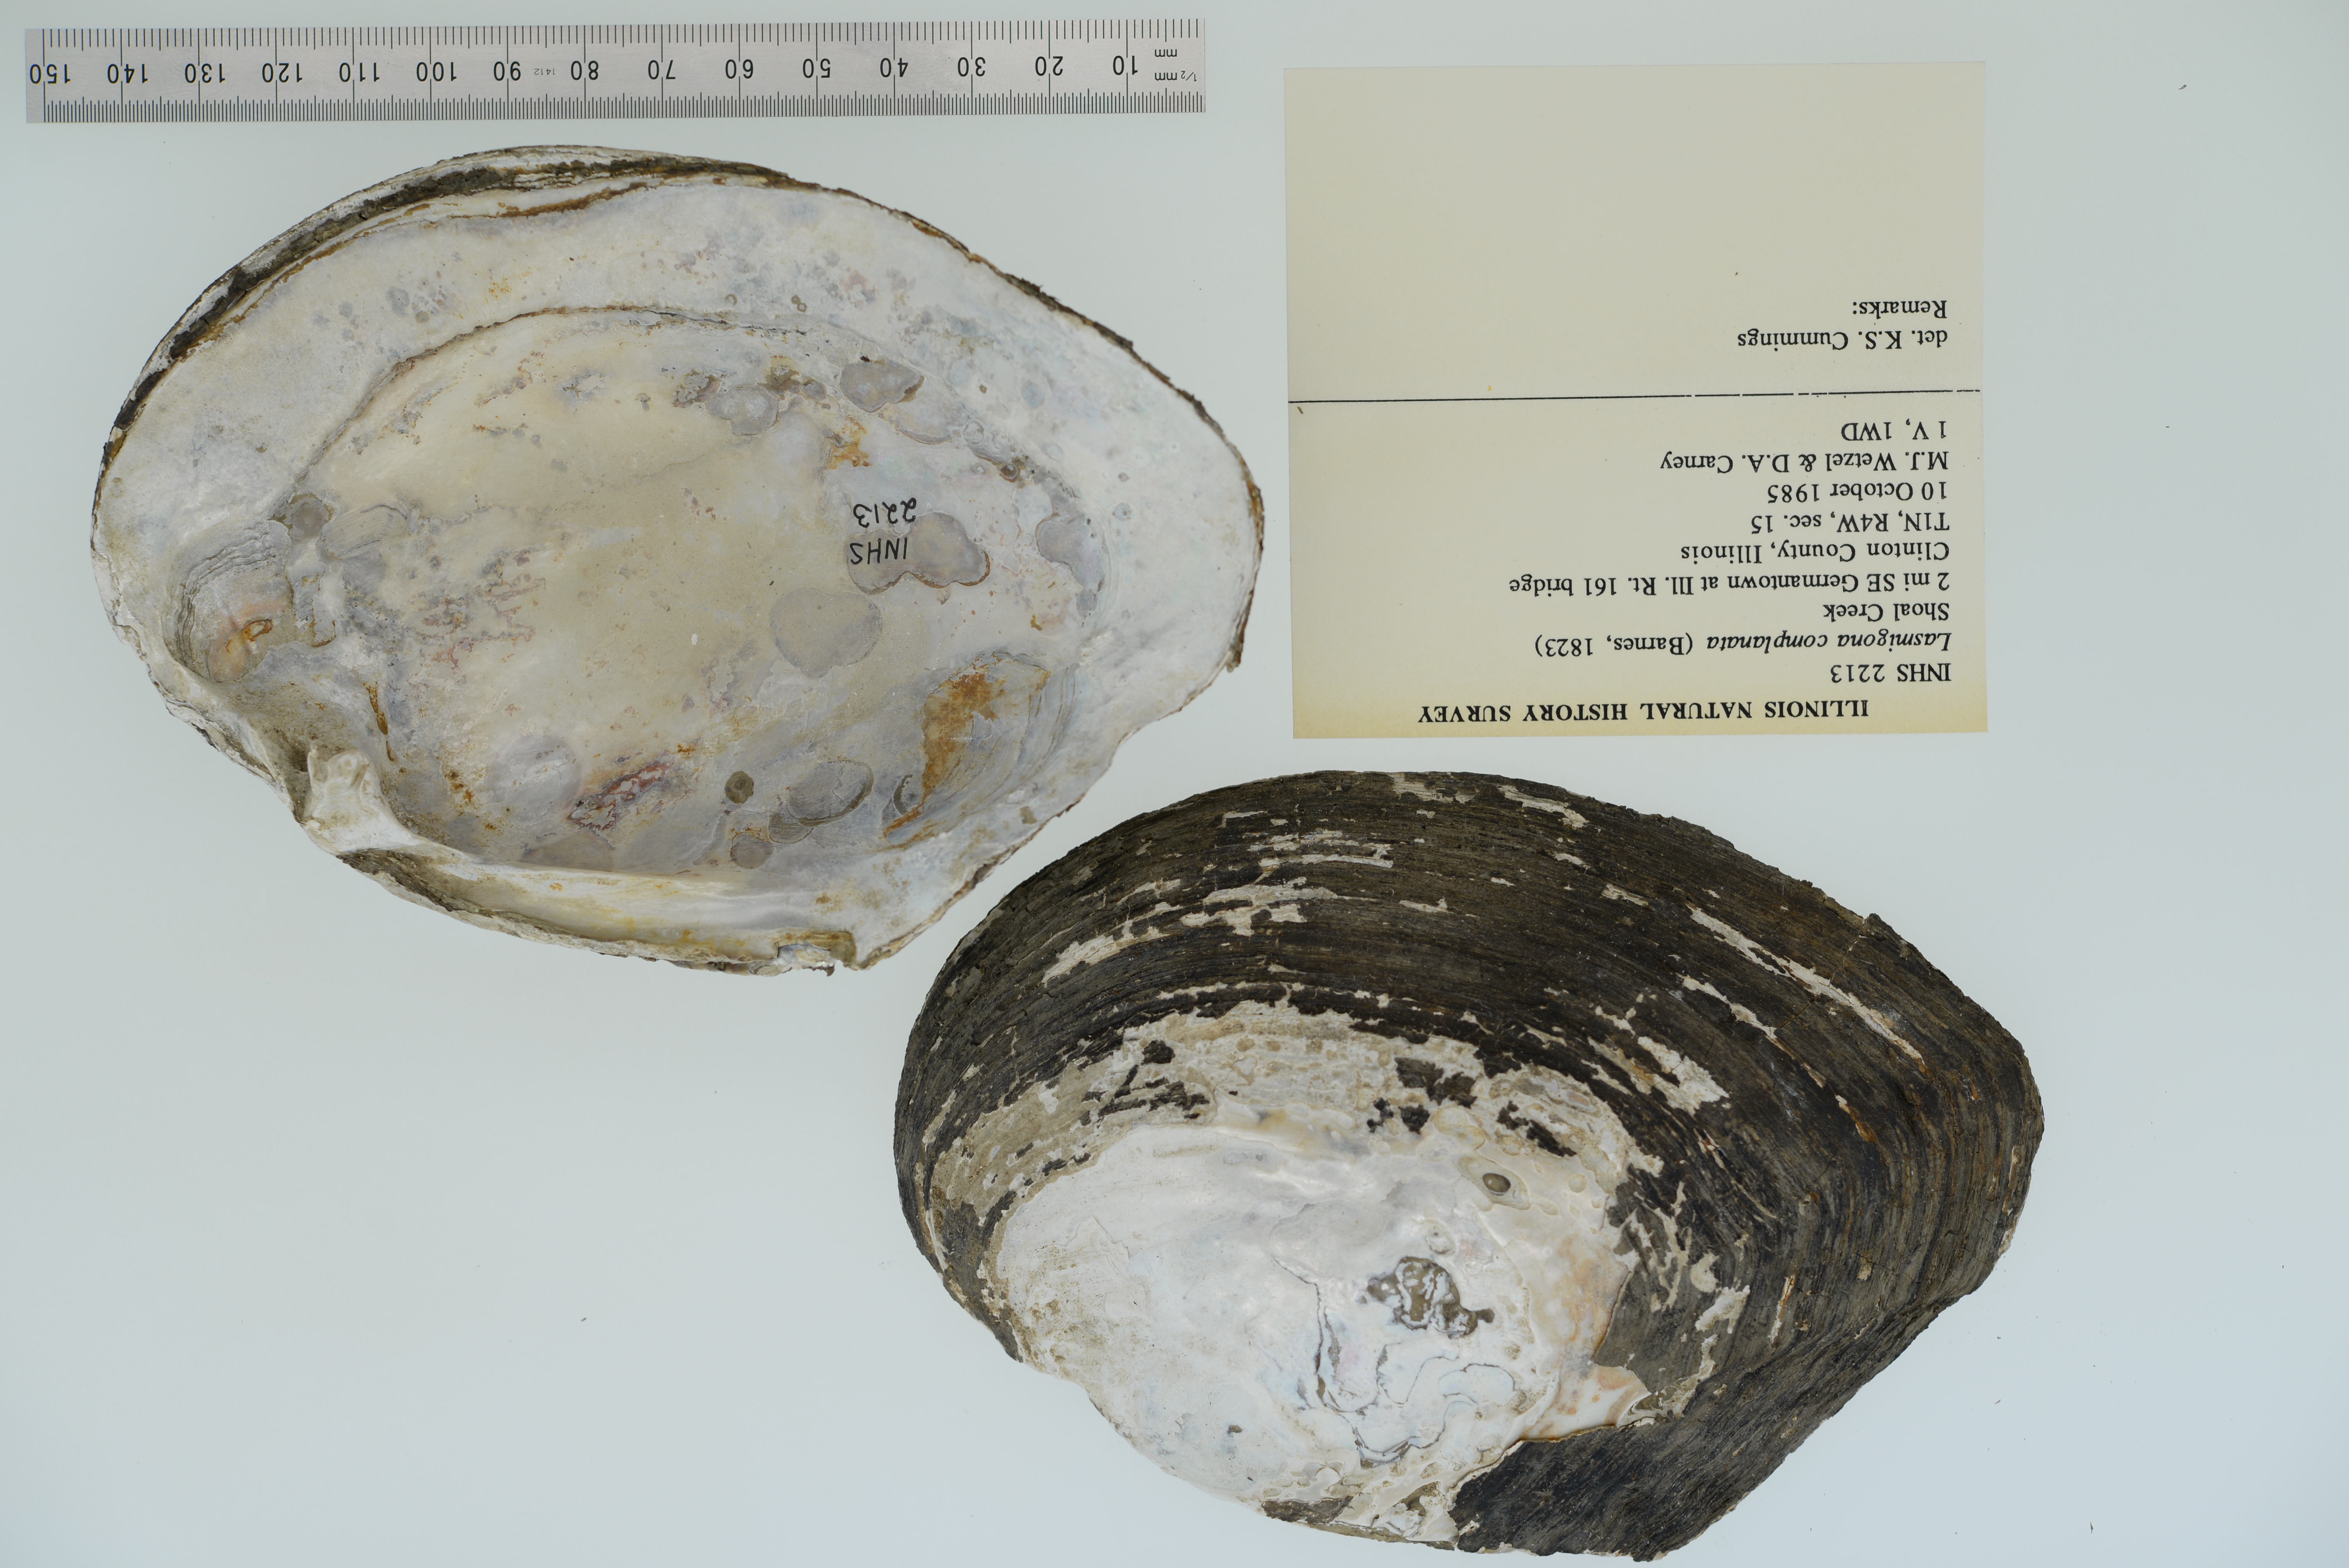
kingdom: Animalia
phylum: Mollusca
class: Bivalvia
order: Unionida
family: Unionidae
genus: Lasmigona
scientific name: Lasmigona complanata
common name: White heelsplitter
